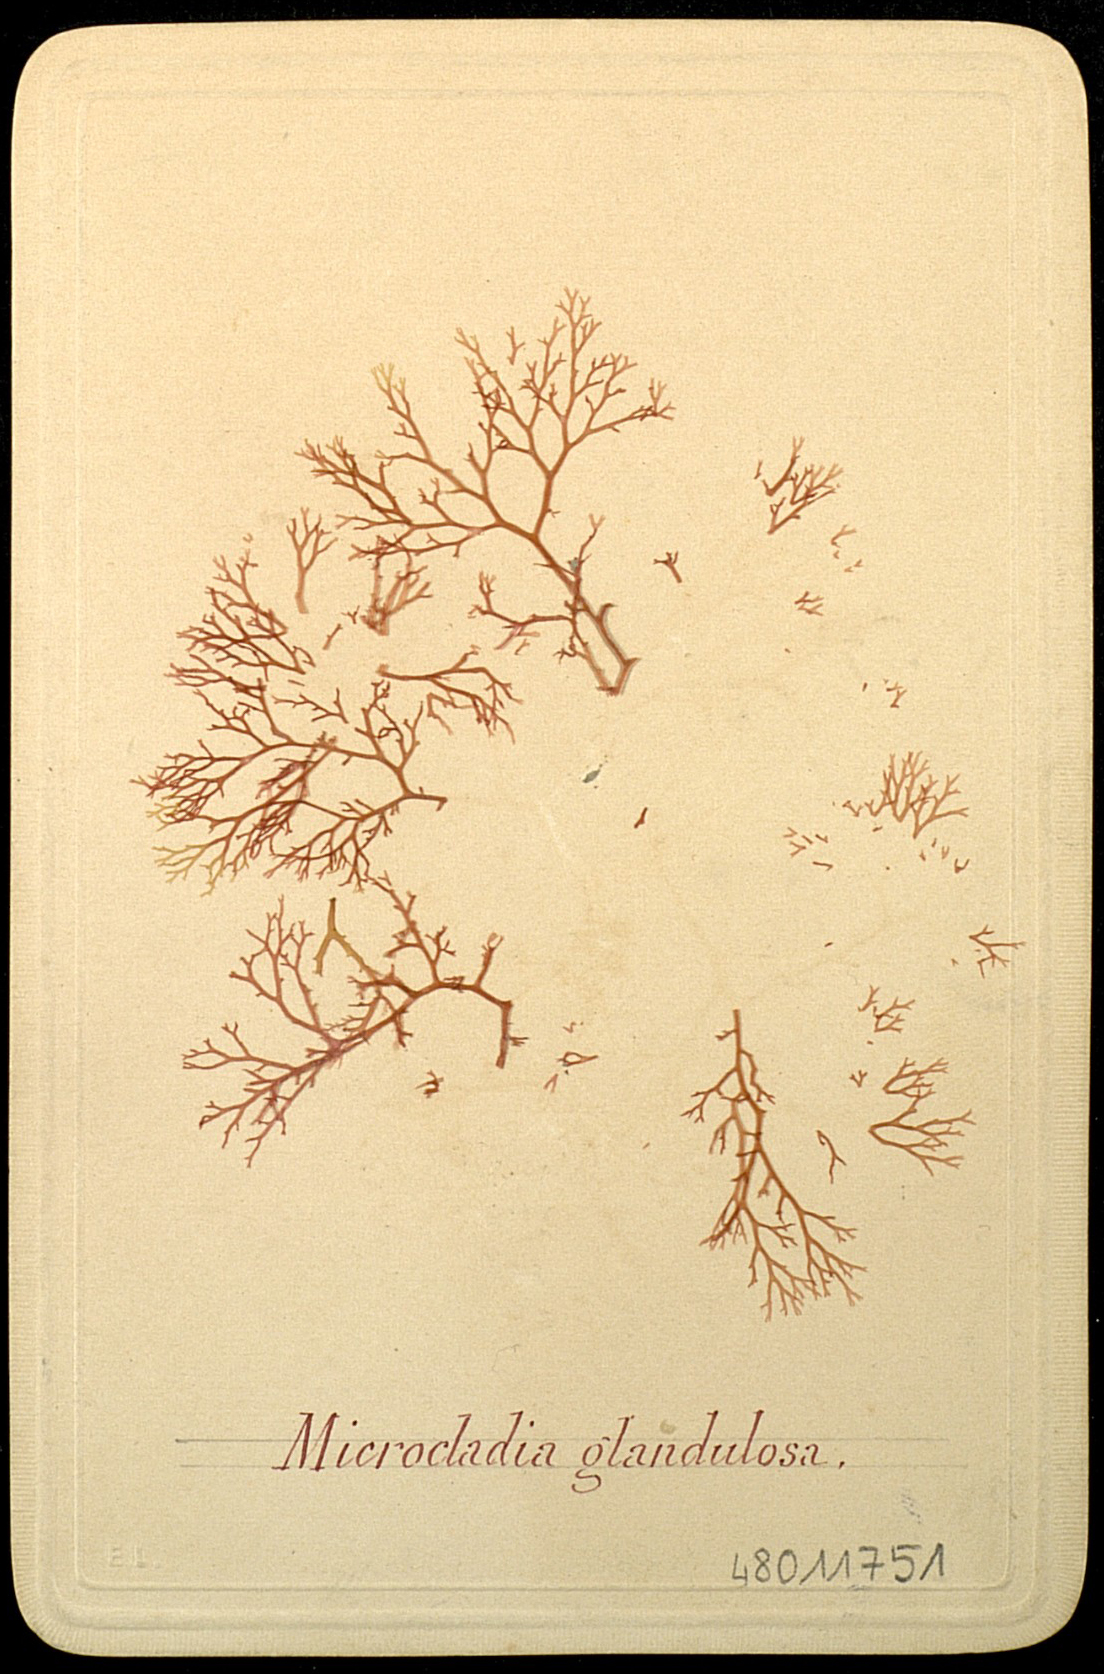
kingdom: Plantae
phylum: Rhodophyta
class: Florideophyceae
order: Ceramiales
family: Ceramiaceae
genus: Microcladia
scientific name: Microcladia glandulosa
